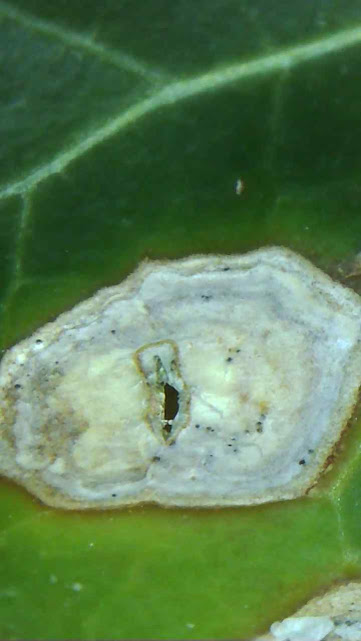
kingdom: Fungi
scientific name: Fungi
